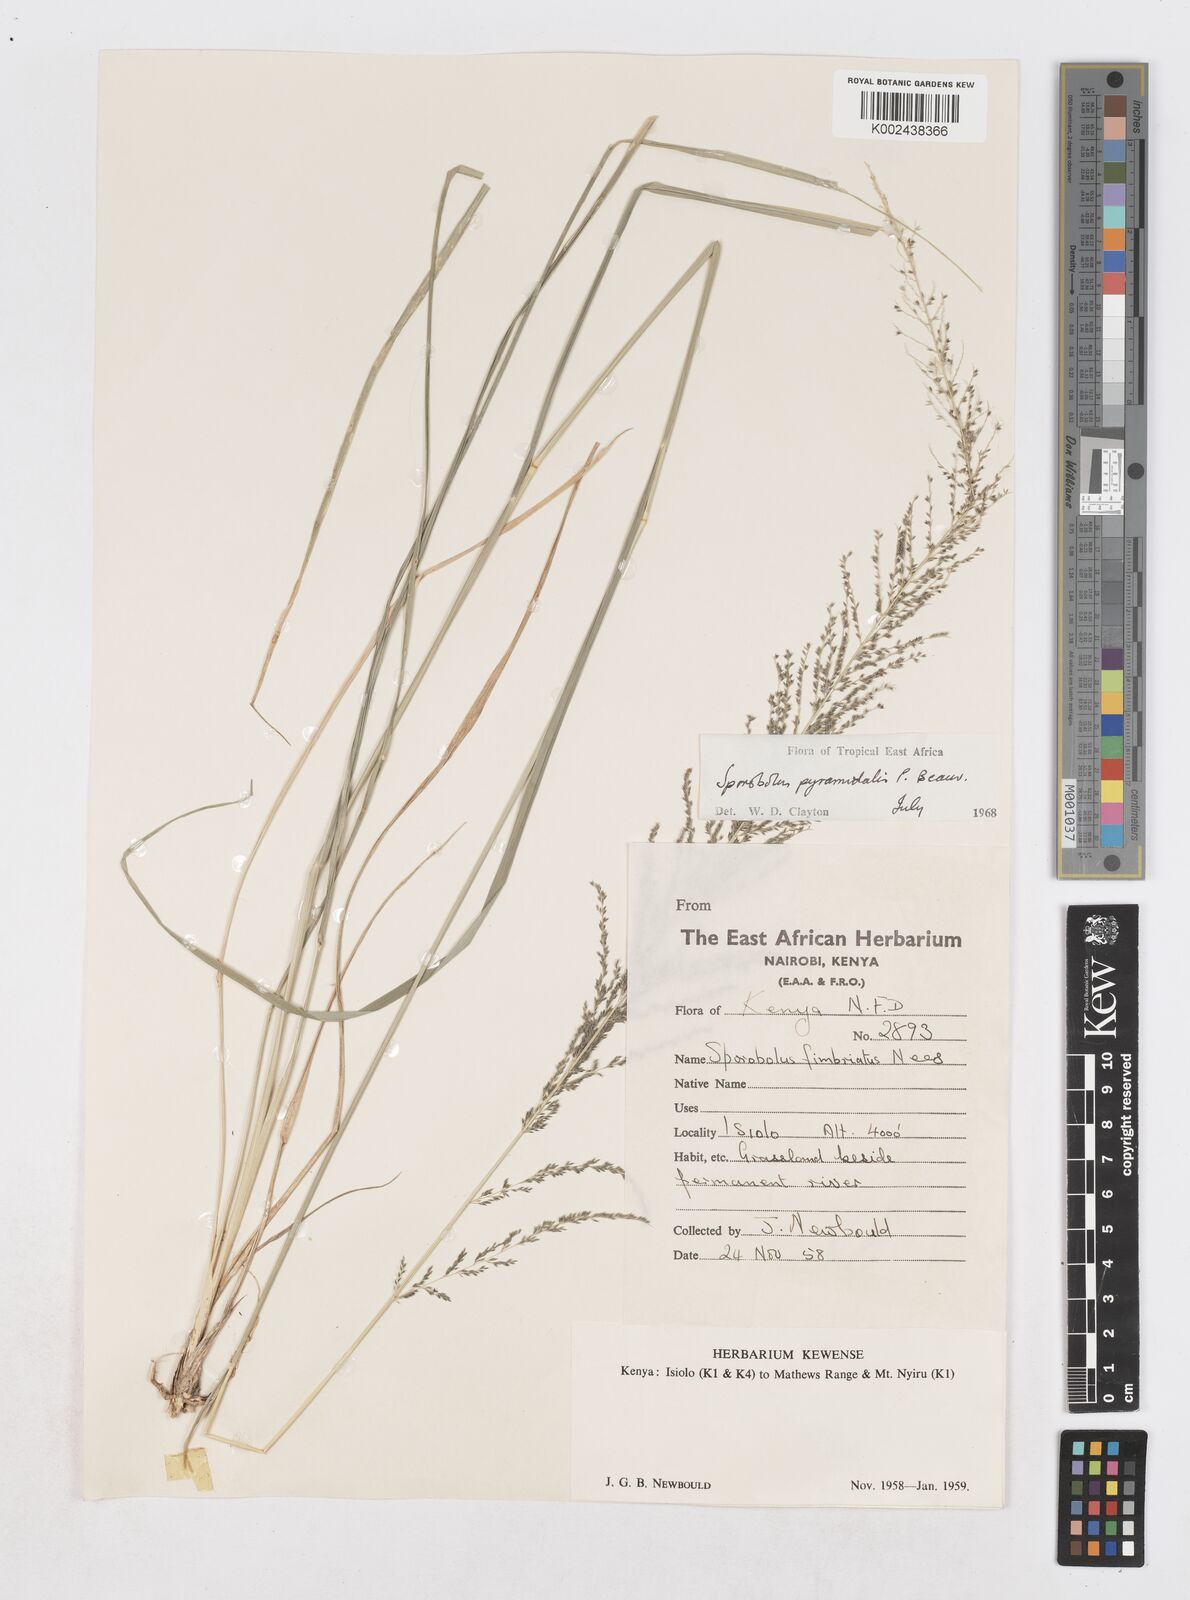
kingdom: Plantae
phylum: Tracheophyta
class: Liliopsida
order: Poales
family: Poaceae
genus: Sporobolus
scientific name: Sporobolus pyramidalis
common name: West indian dropseed
